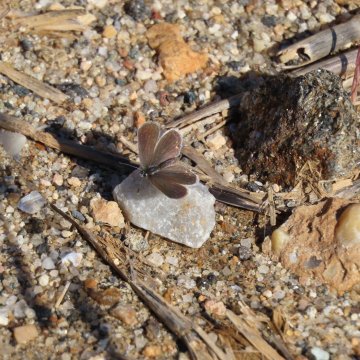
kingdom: Animalia
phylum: Arthropoda
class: Insecta
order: Lepidoptera
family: Lycaenidae
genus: Elkalyce
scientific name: Elkalyce comyntas
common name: Eastern Tailed-Blue
